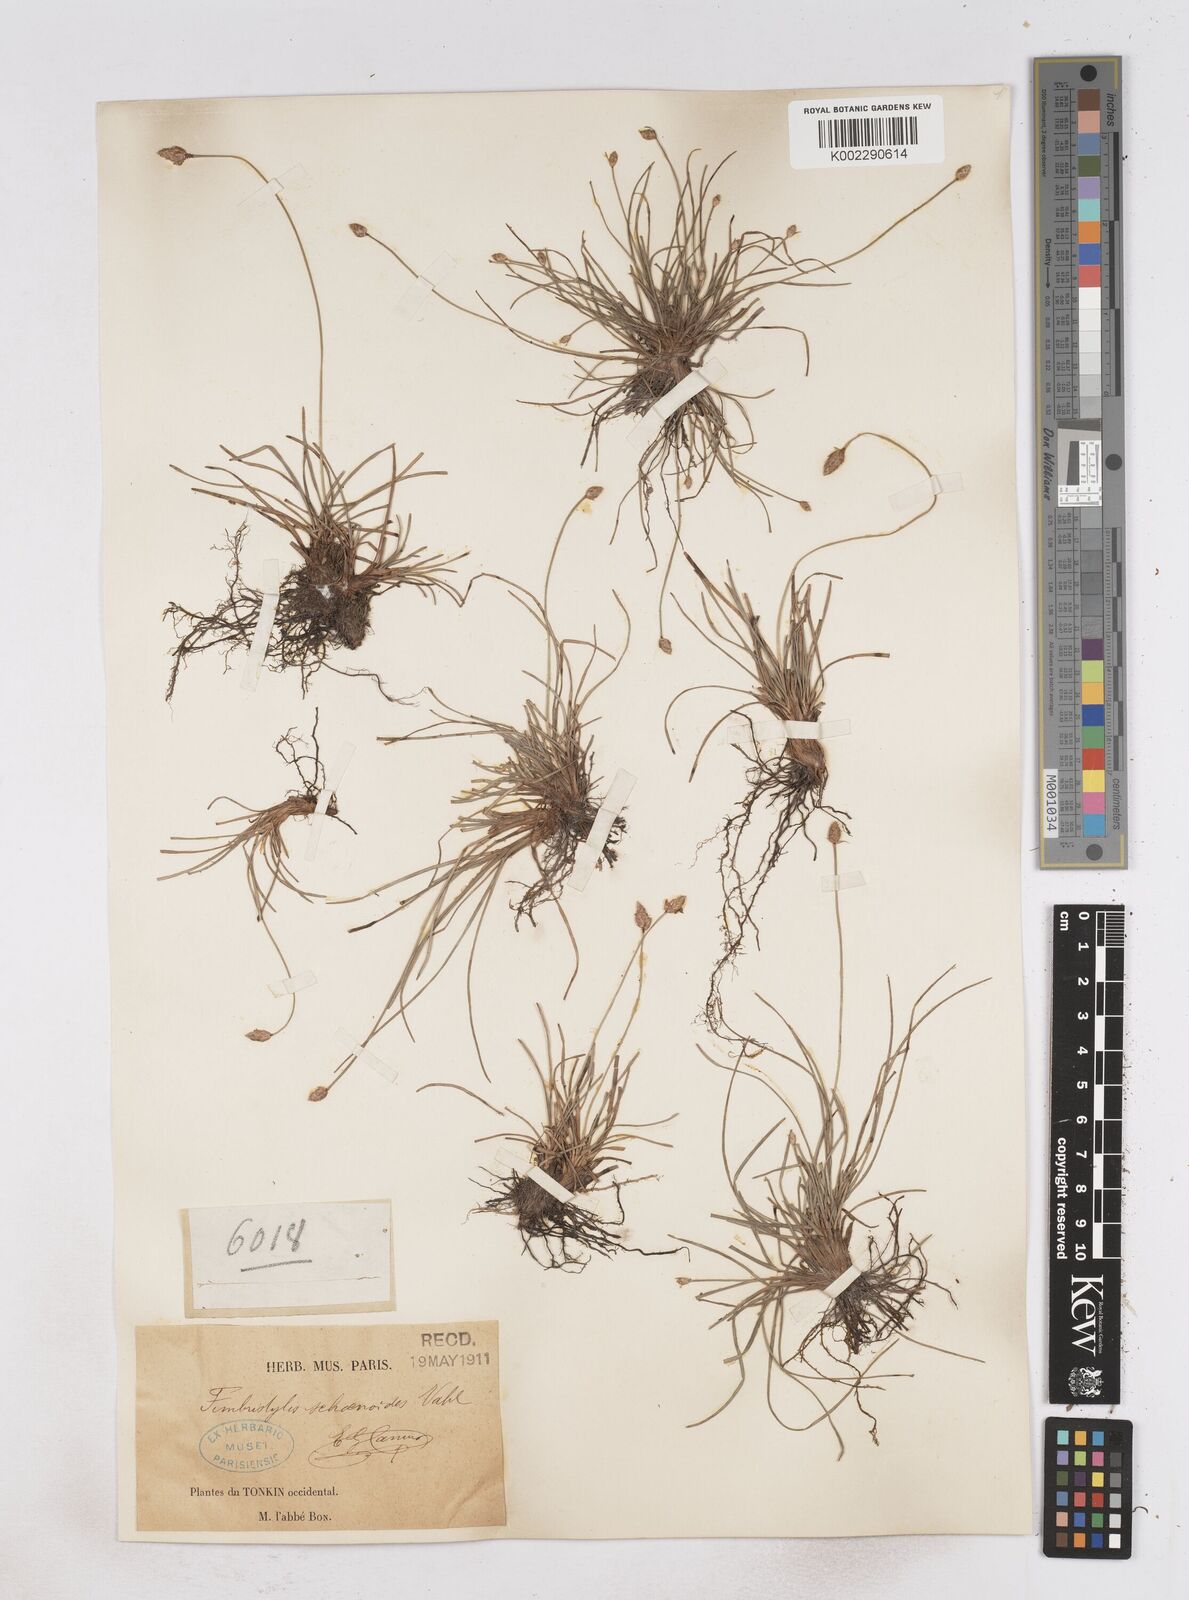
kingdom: Plantae
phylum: Tracheophyta
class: Liliopsida
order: Poales
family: Cyperaceae
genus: Fimbristylis
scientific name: Fimbristylis schoenoides
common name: Ditch fimbry
